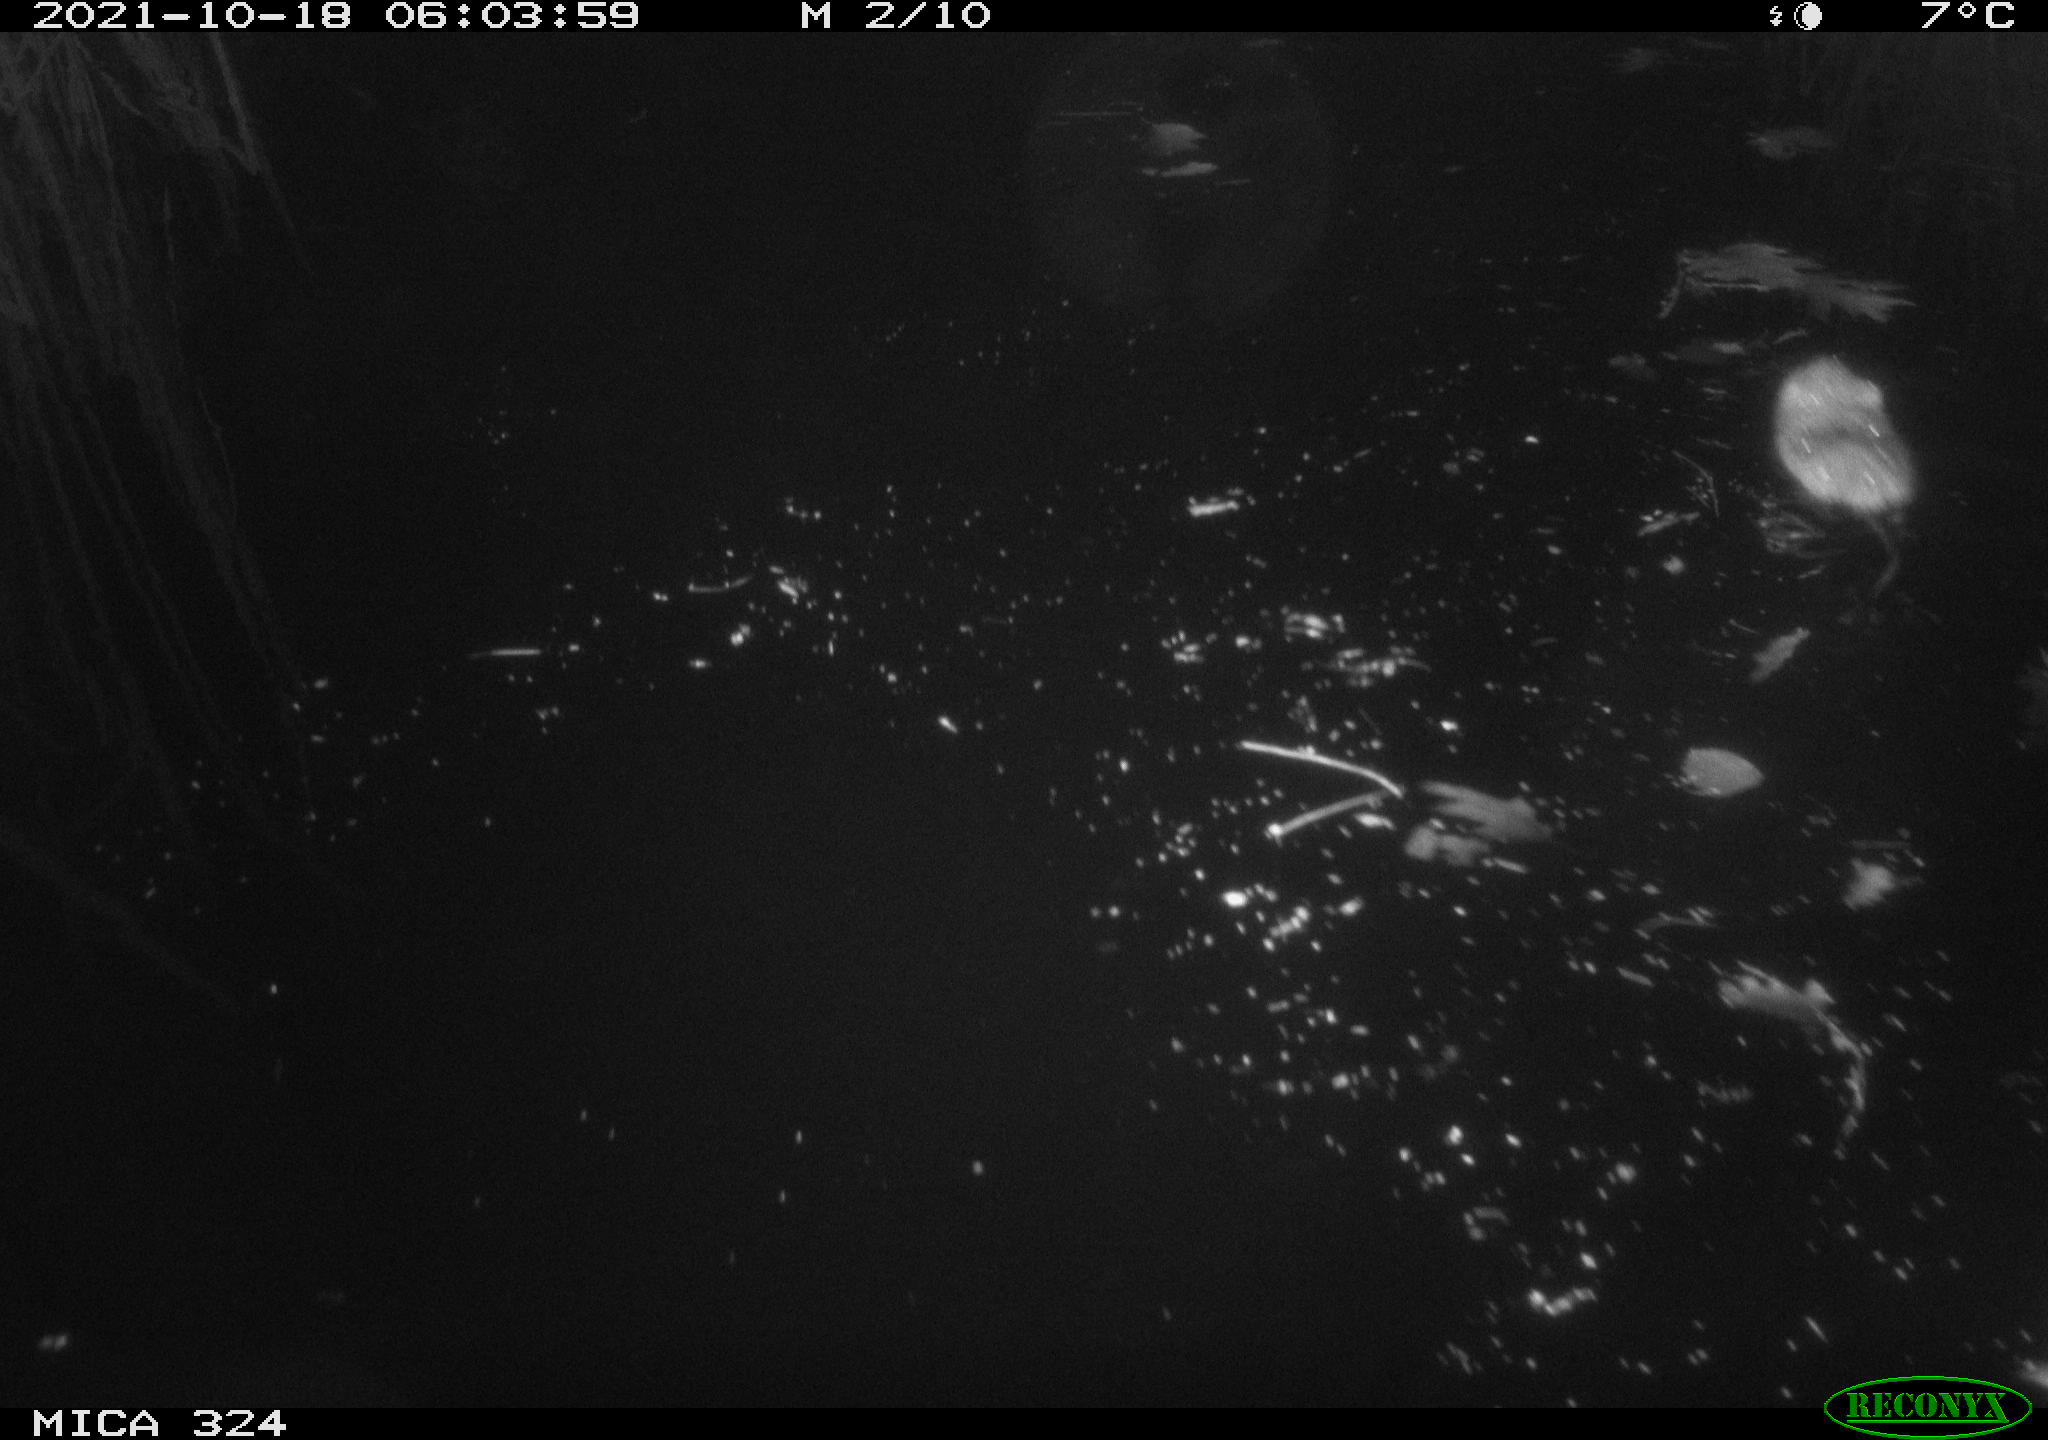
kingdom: Animalia
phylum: Chordata
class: Mammalia
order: Rodentia
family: Cricetidae
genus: Ondatra
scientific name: Ondatra zibethicus
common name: Muskrat
